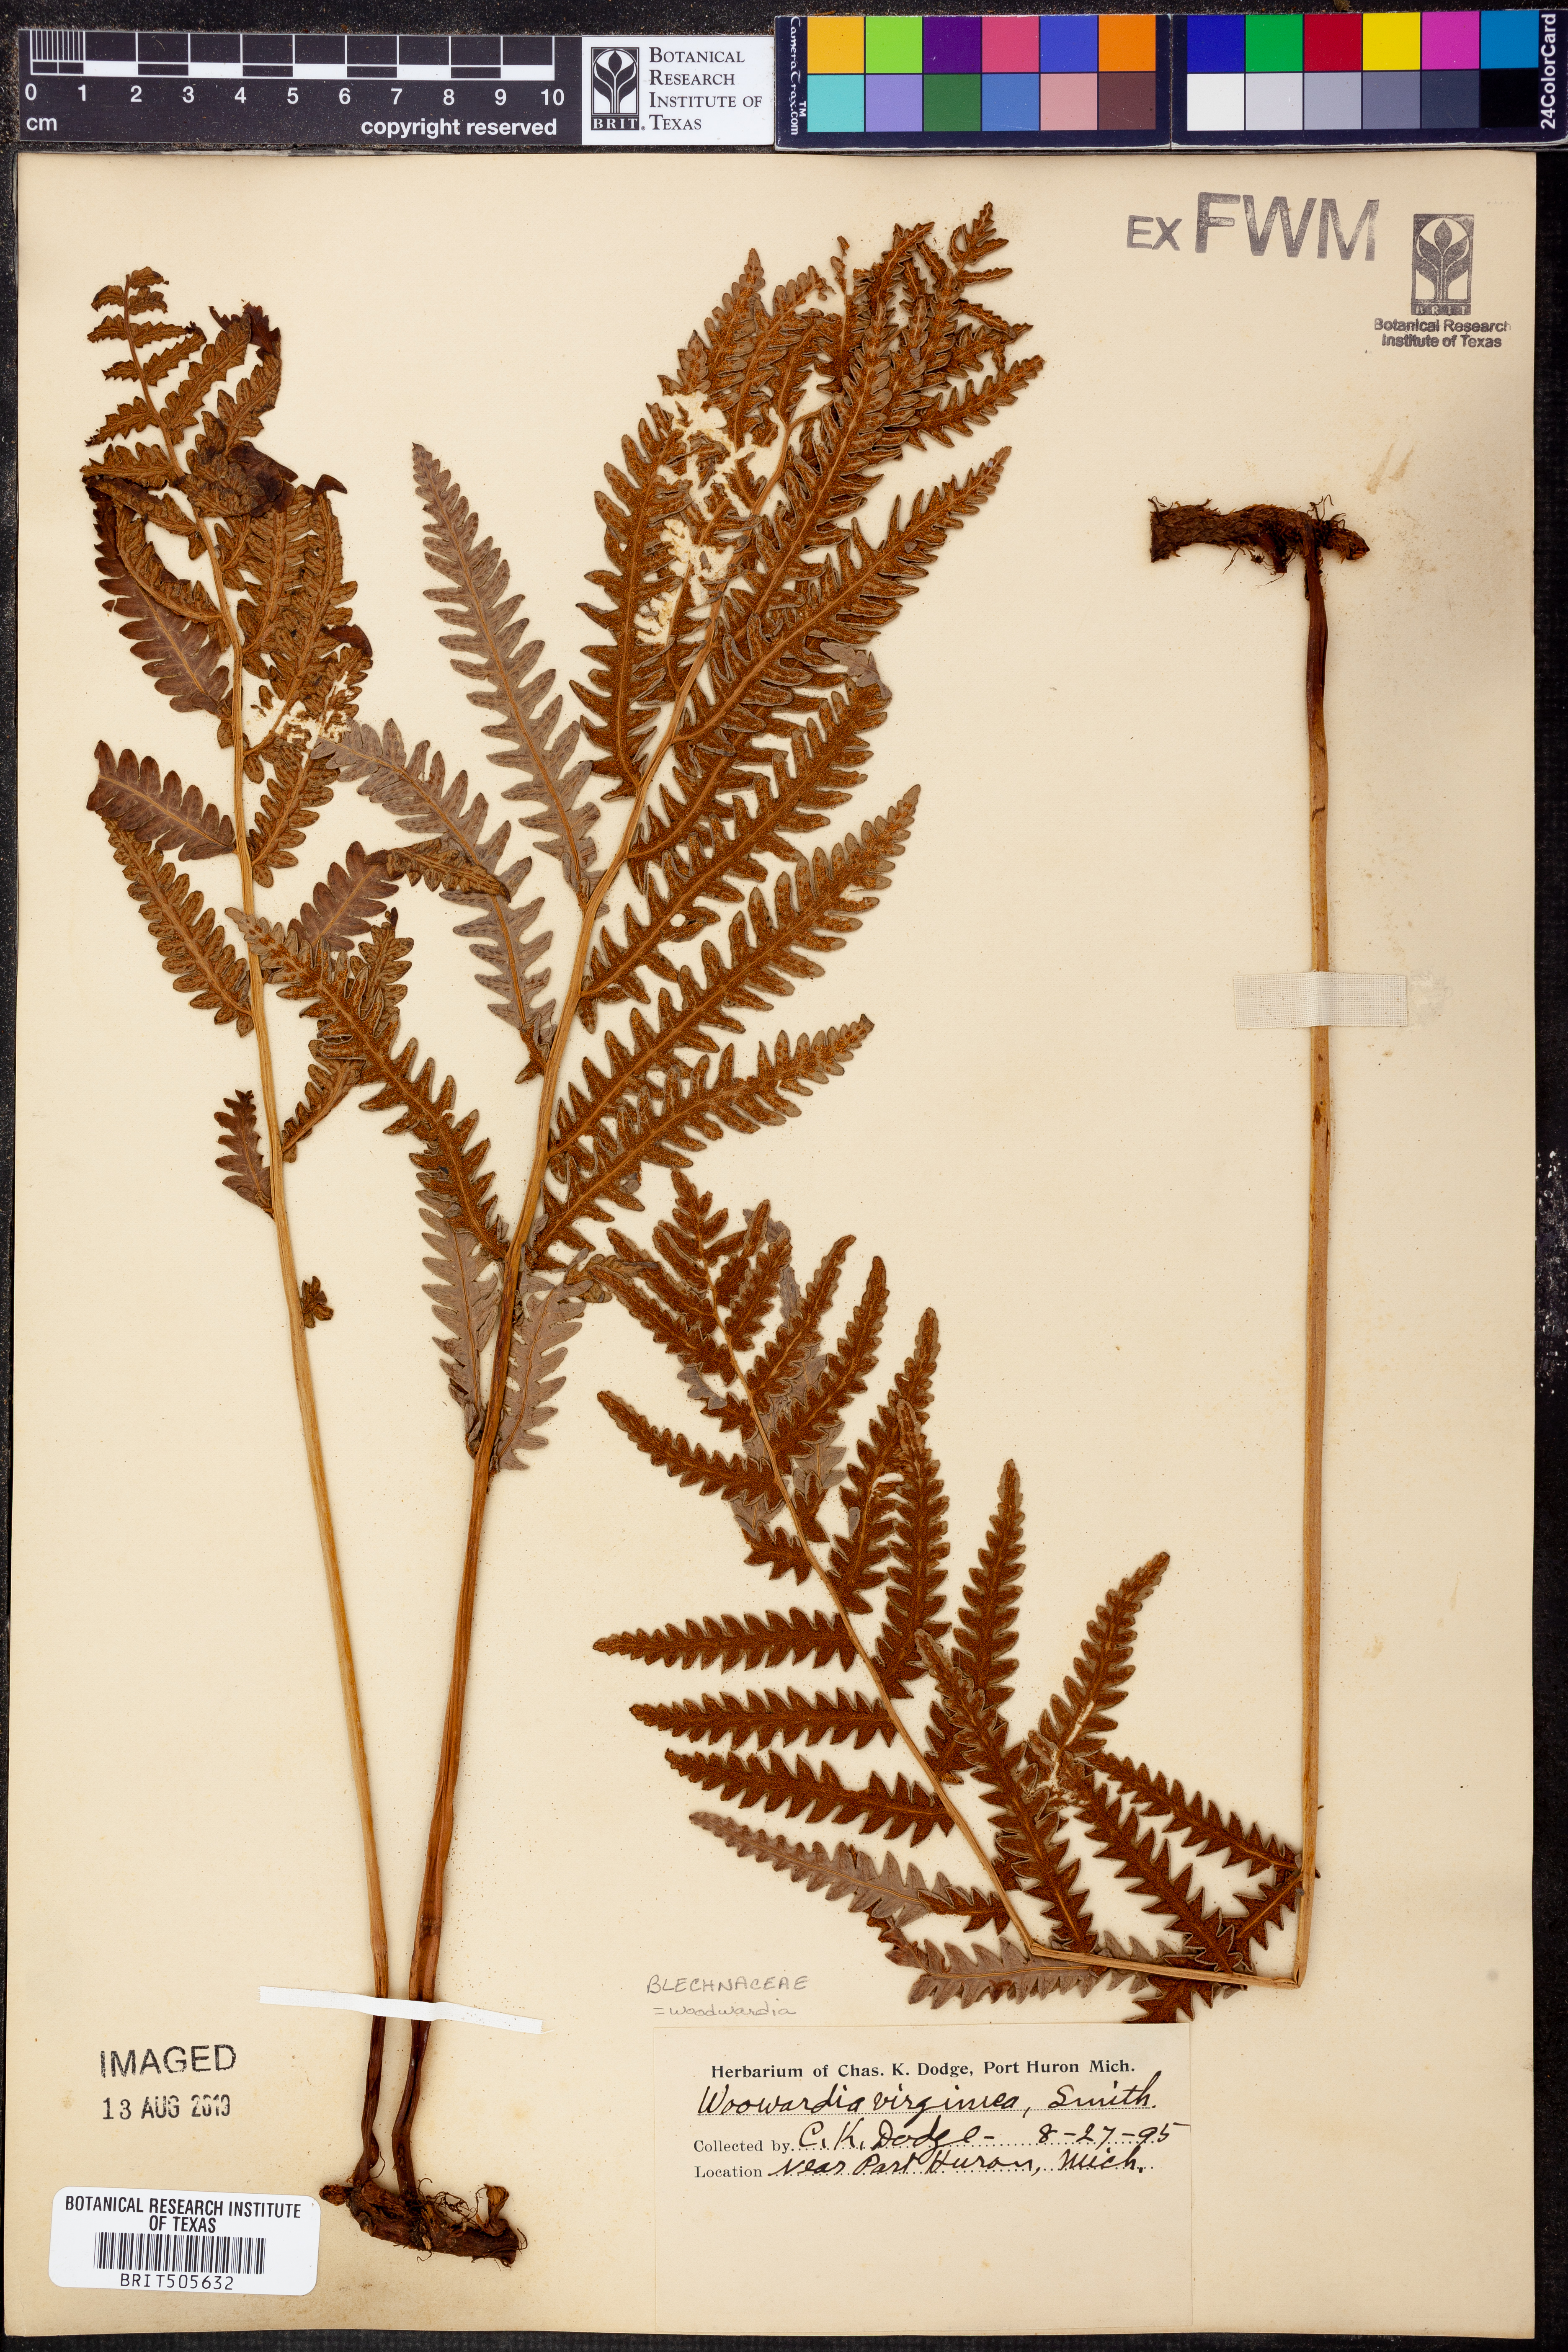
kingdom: Plantae
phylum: Tracheophyta
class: Polypodiopsida
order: Polypodiales
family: Blechnaceae
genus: Anchistea
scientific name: Anchistea virginica
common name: Virginia chain fern
